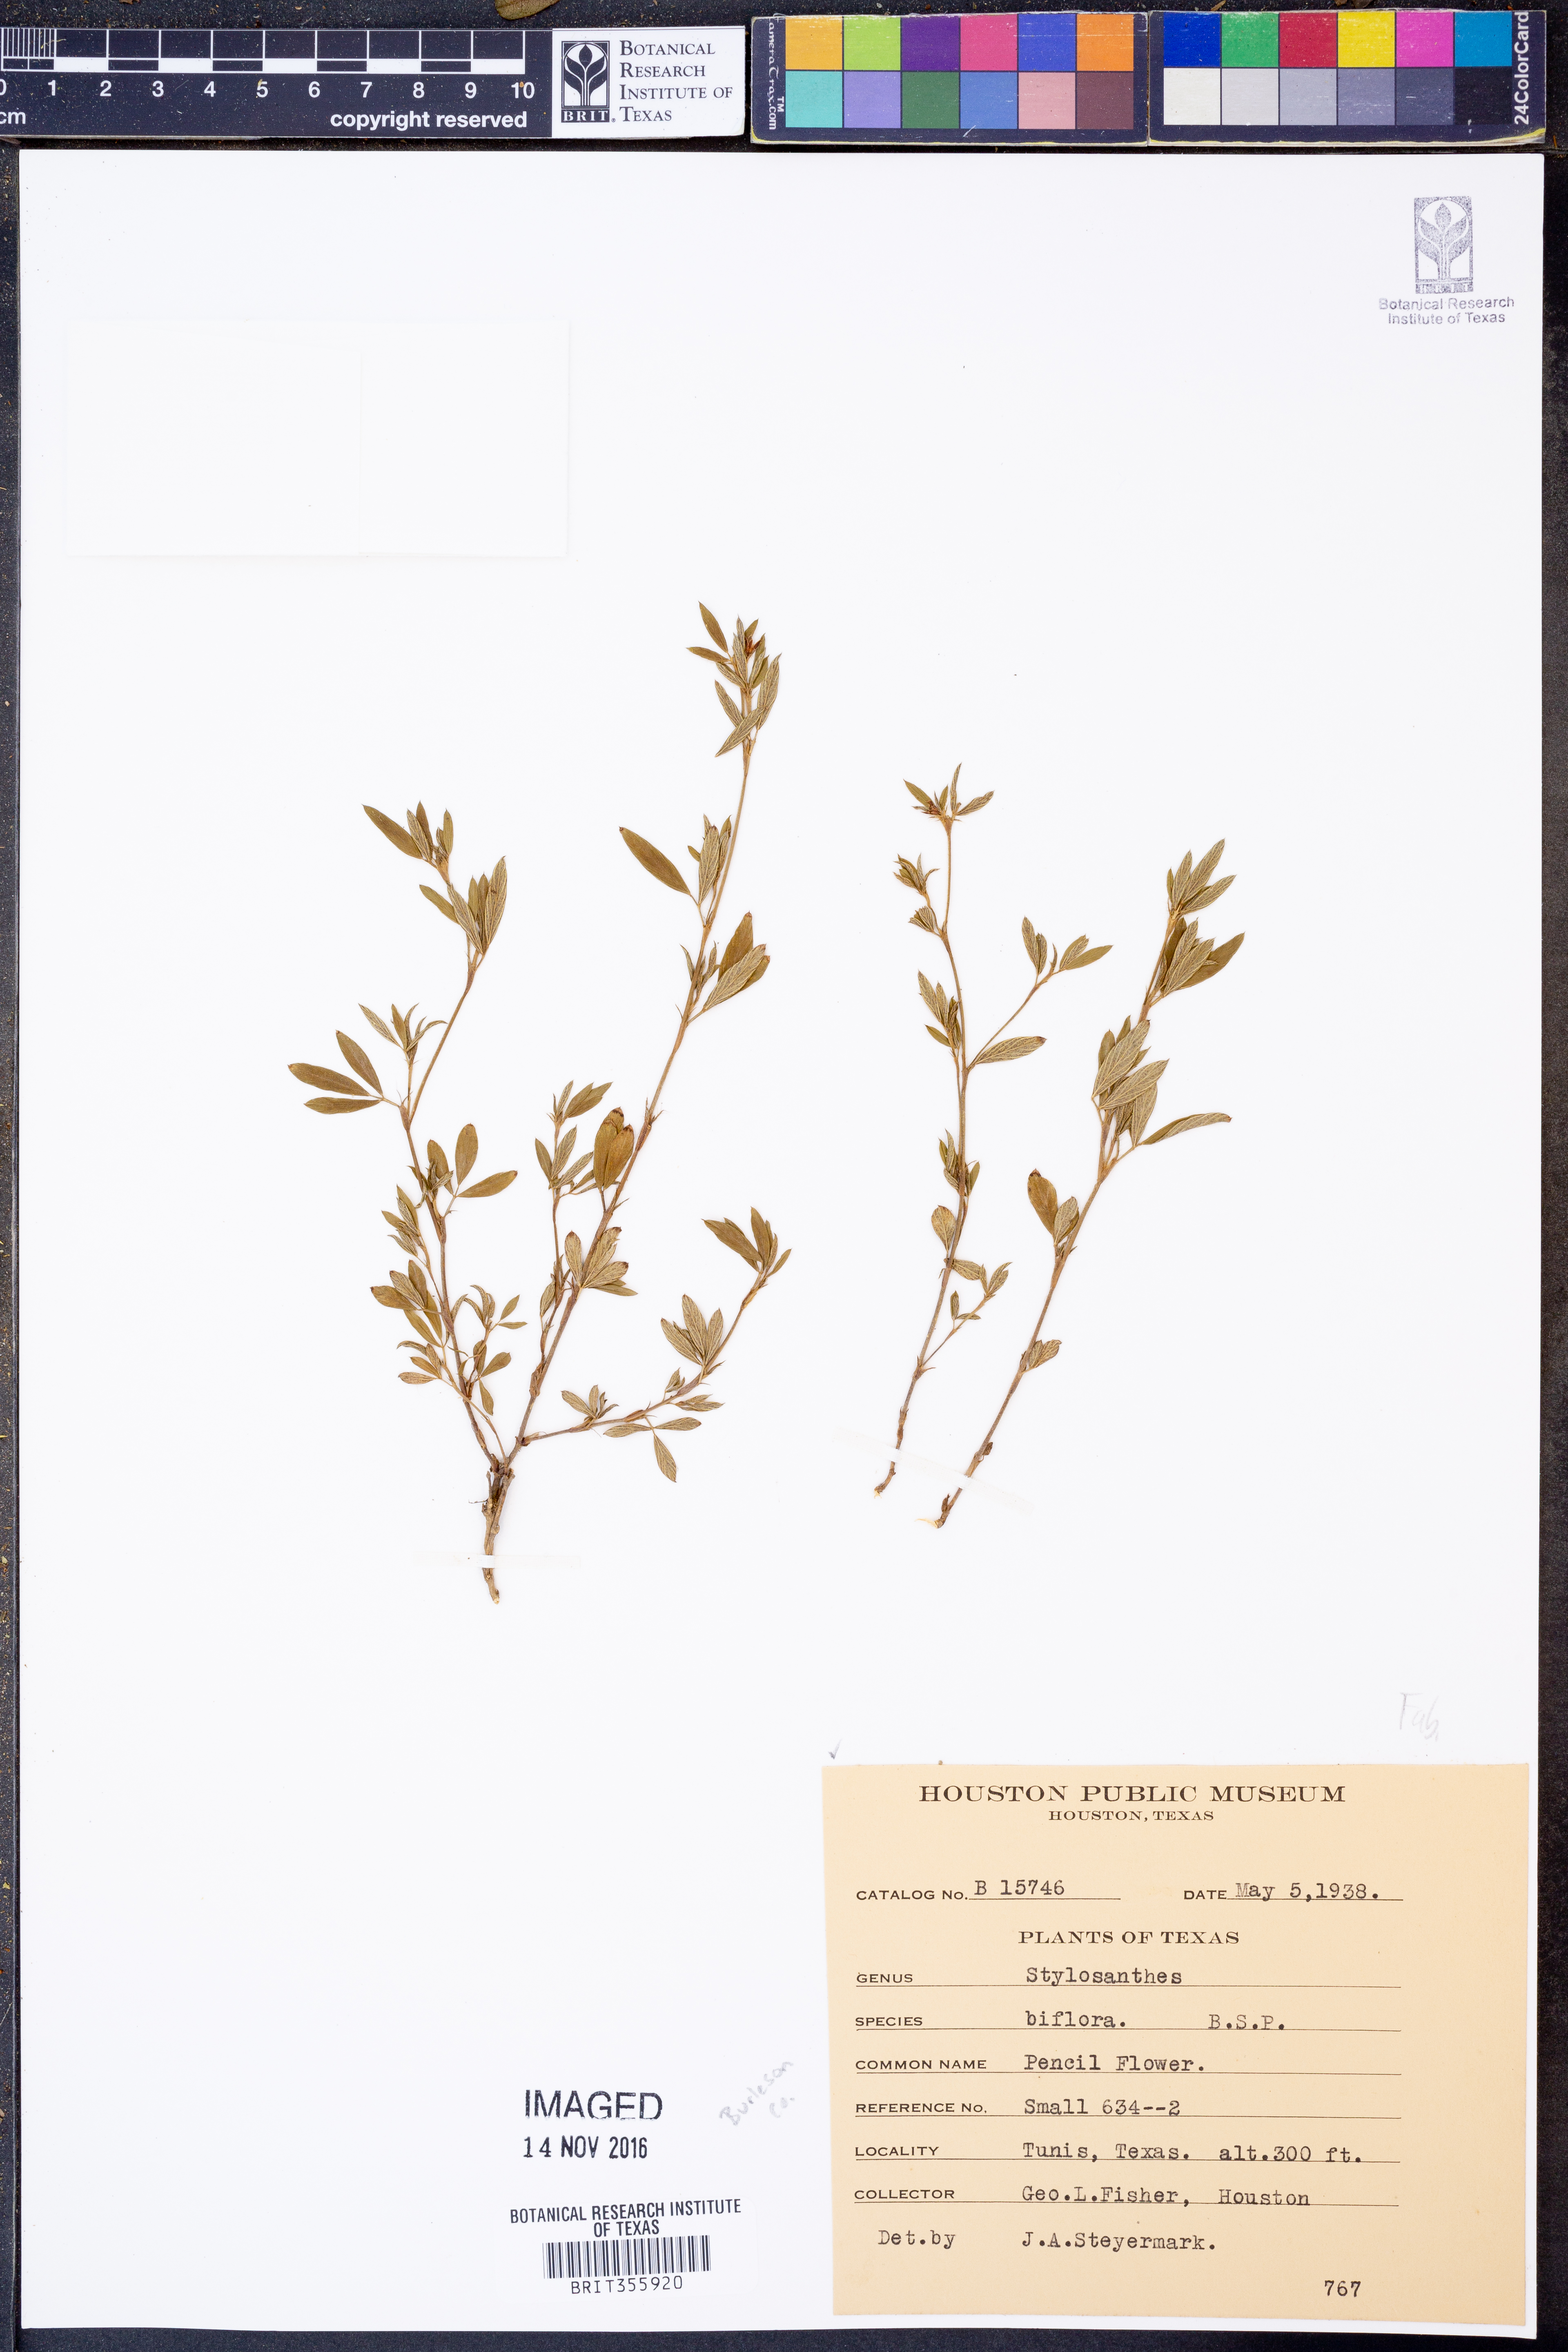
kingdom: Plantae
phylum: Tracheophyta
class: Magnoliopsida
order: Fabales
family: Fabaceae
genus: Stylosanthes
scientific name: Stylosanthes biflora
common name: Two-flower pencil-flower
